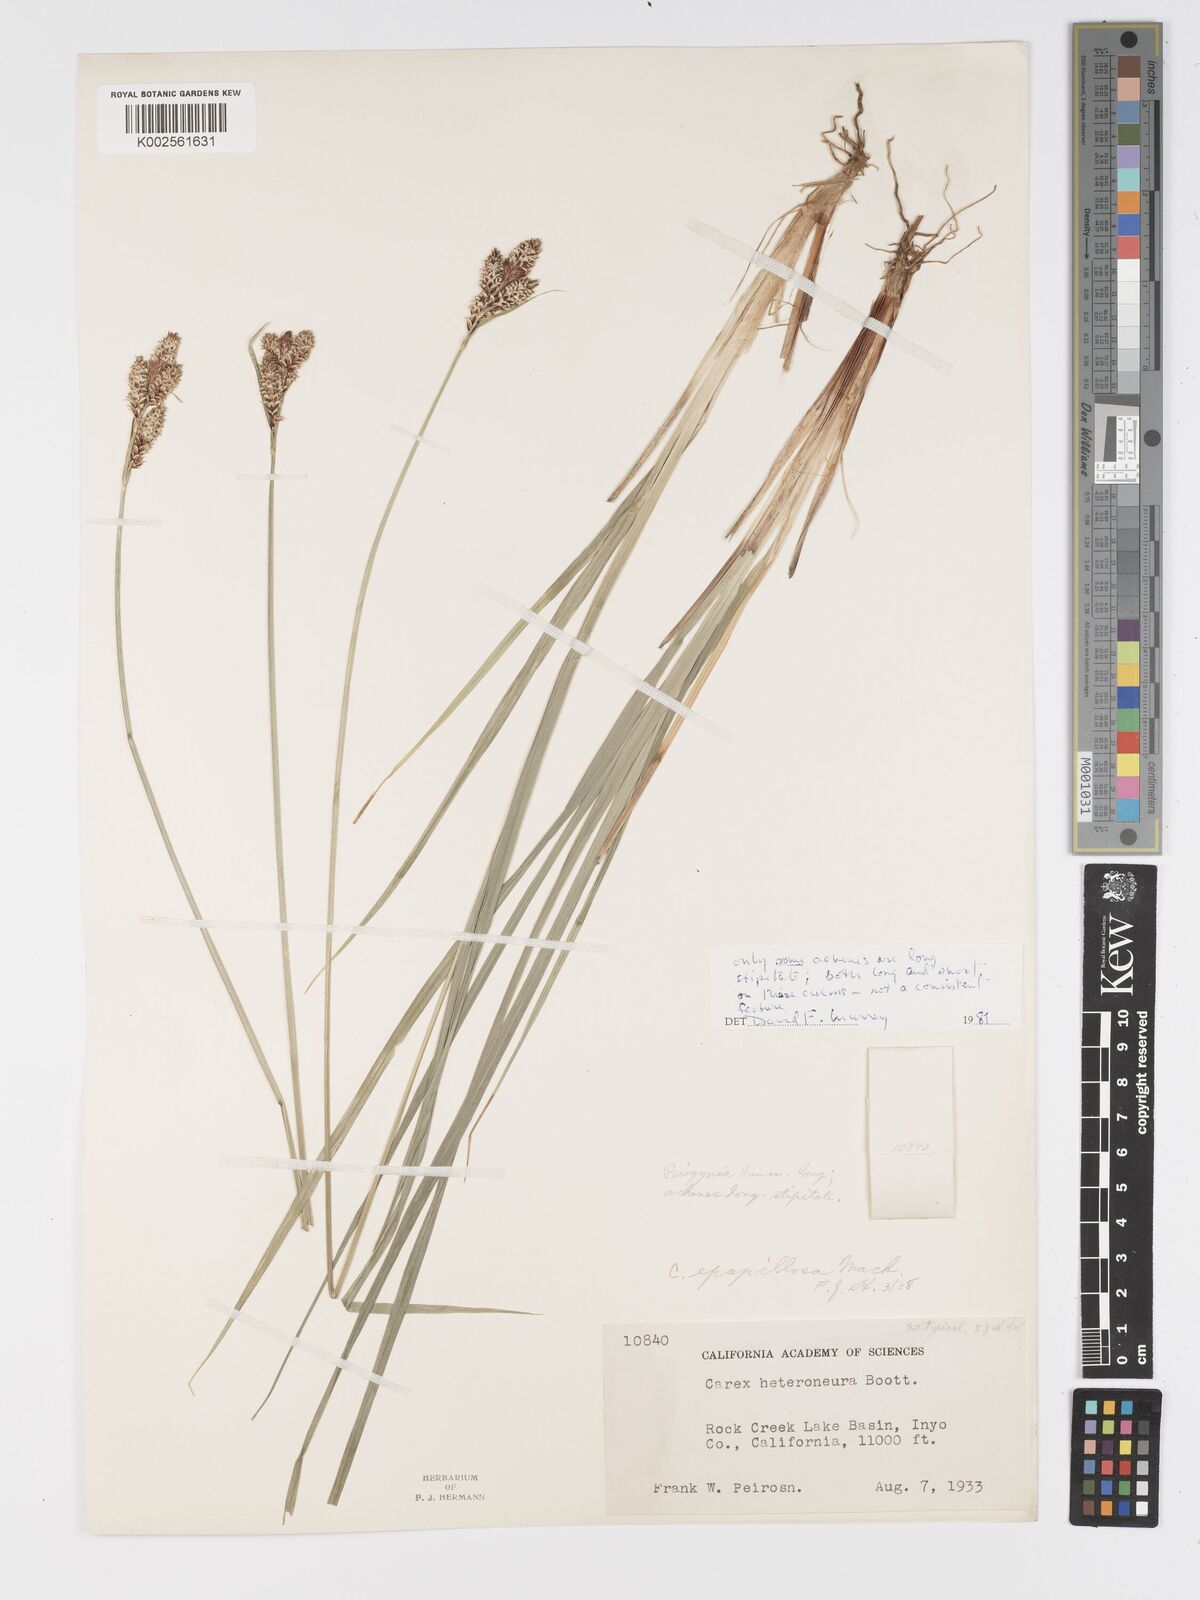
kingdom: Plantae
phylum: Tracheophyta
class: Liliopsida
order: Poales
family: Cyperaceae
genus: Carex
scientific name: Carex heteroneura
